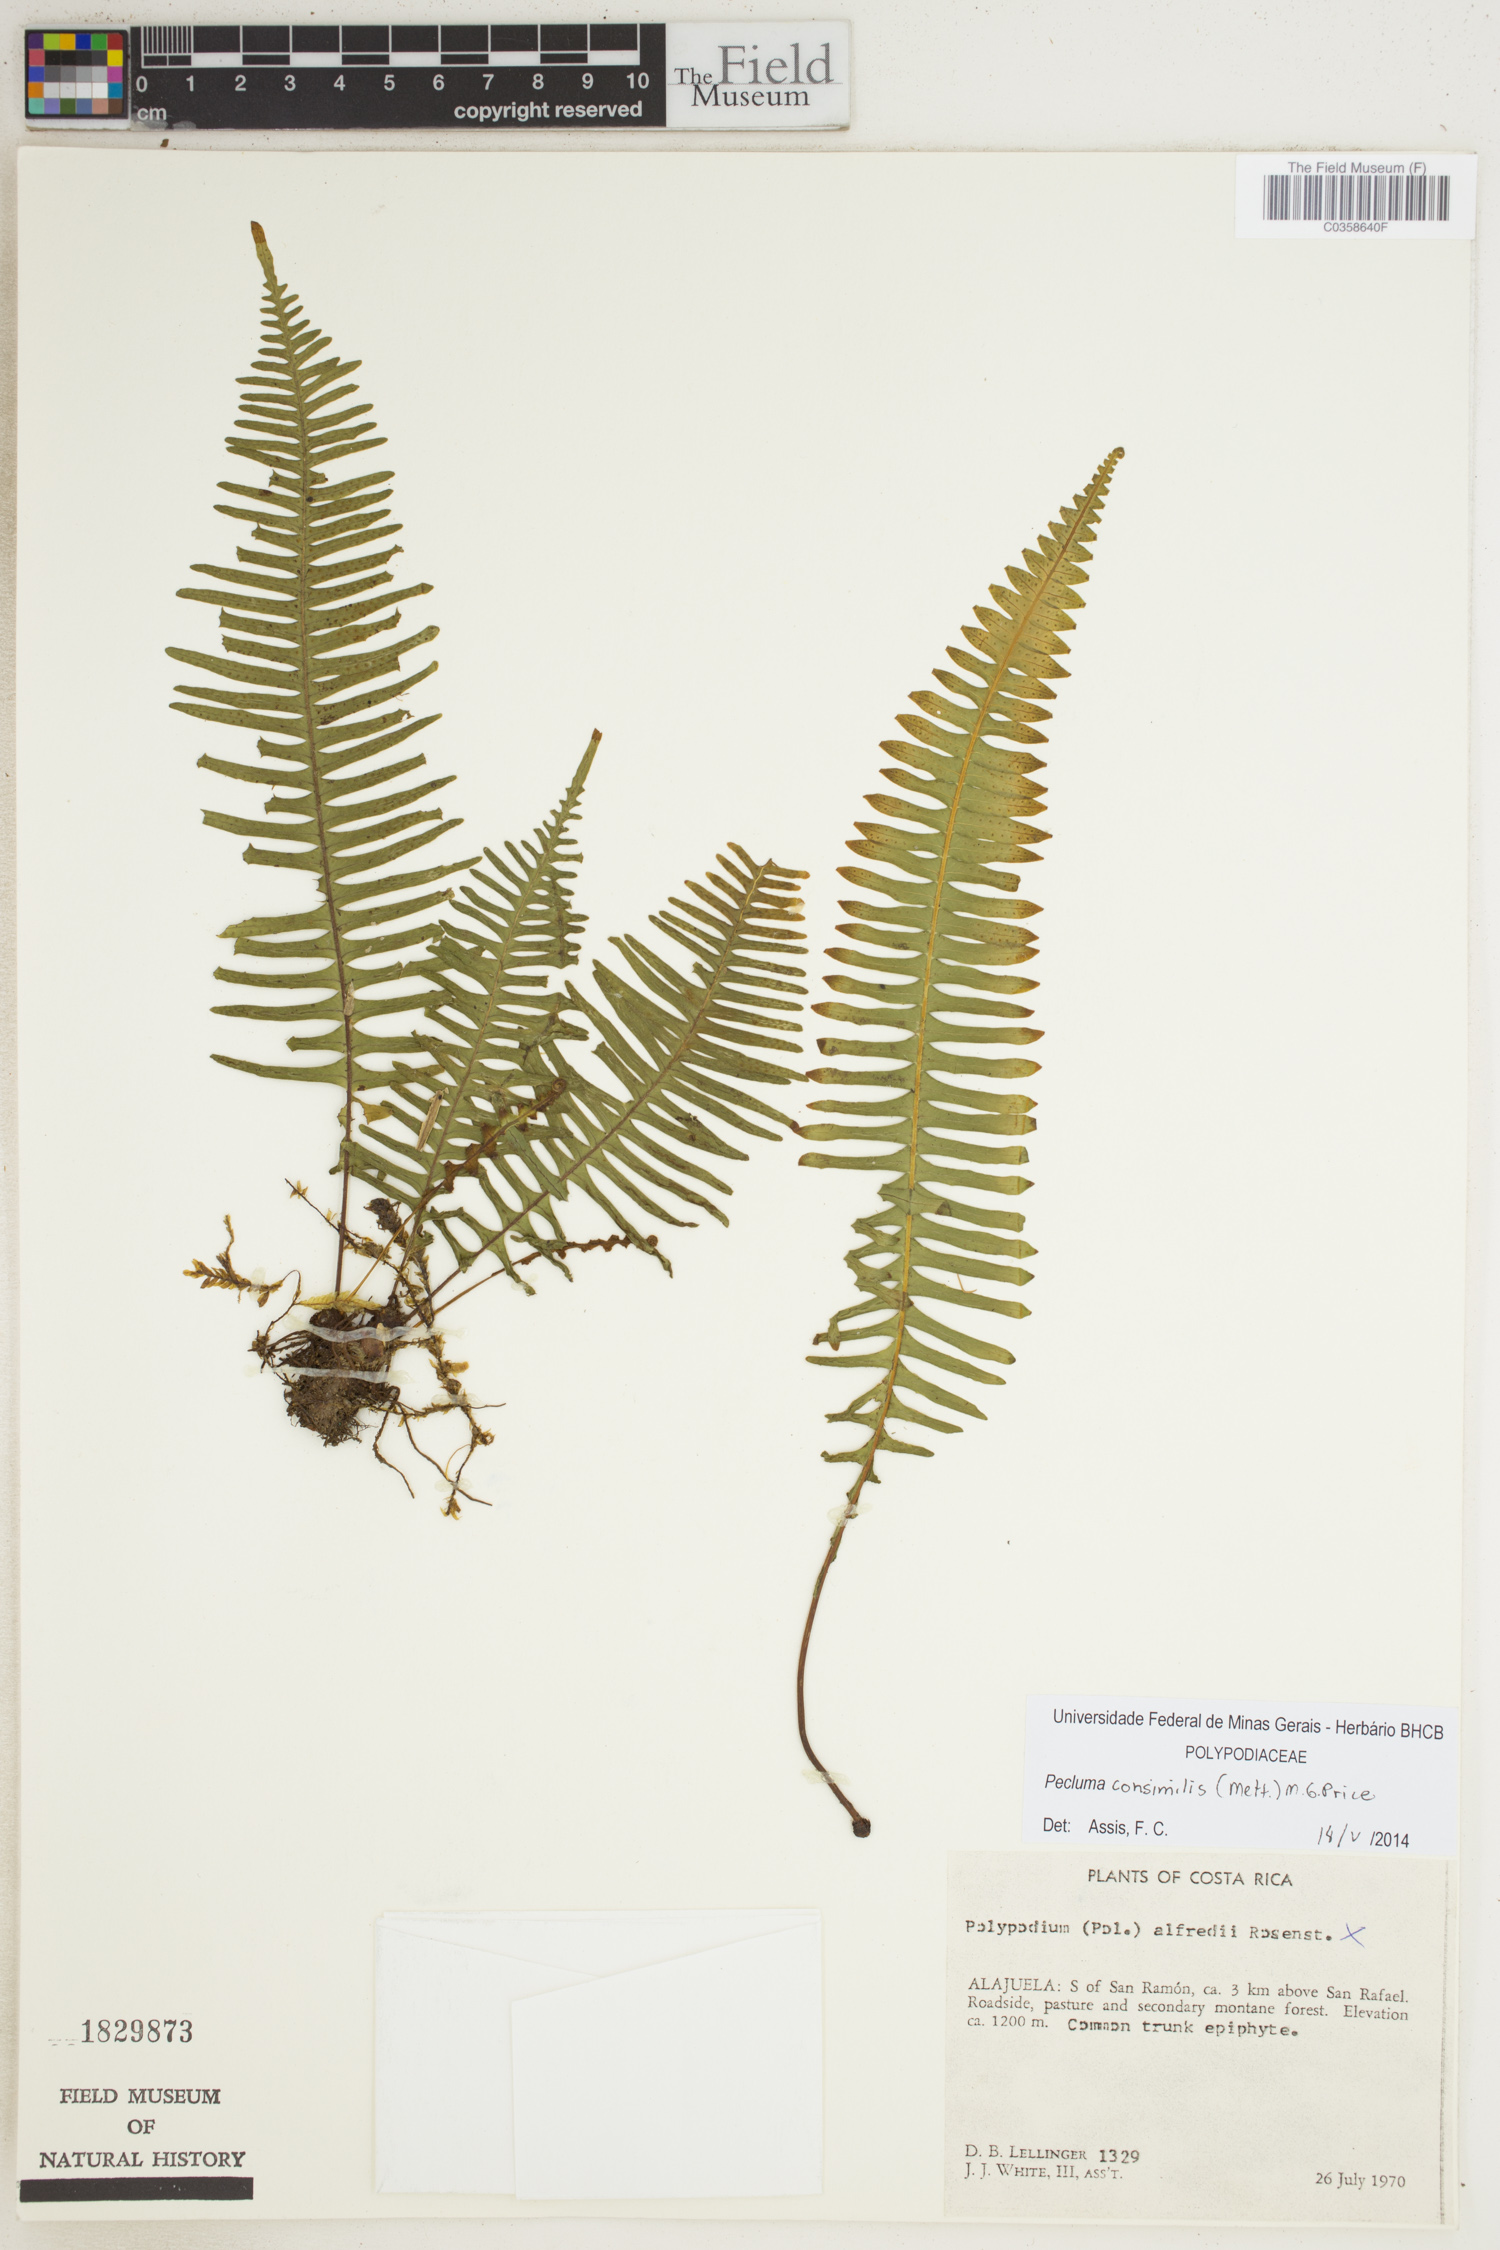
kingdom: Plantae
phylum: Tracheophyta
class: Polypodiopsida
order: Polypodiales
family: Polypodiaceae
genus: Pecluma
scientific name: Pecluma consimilis
